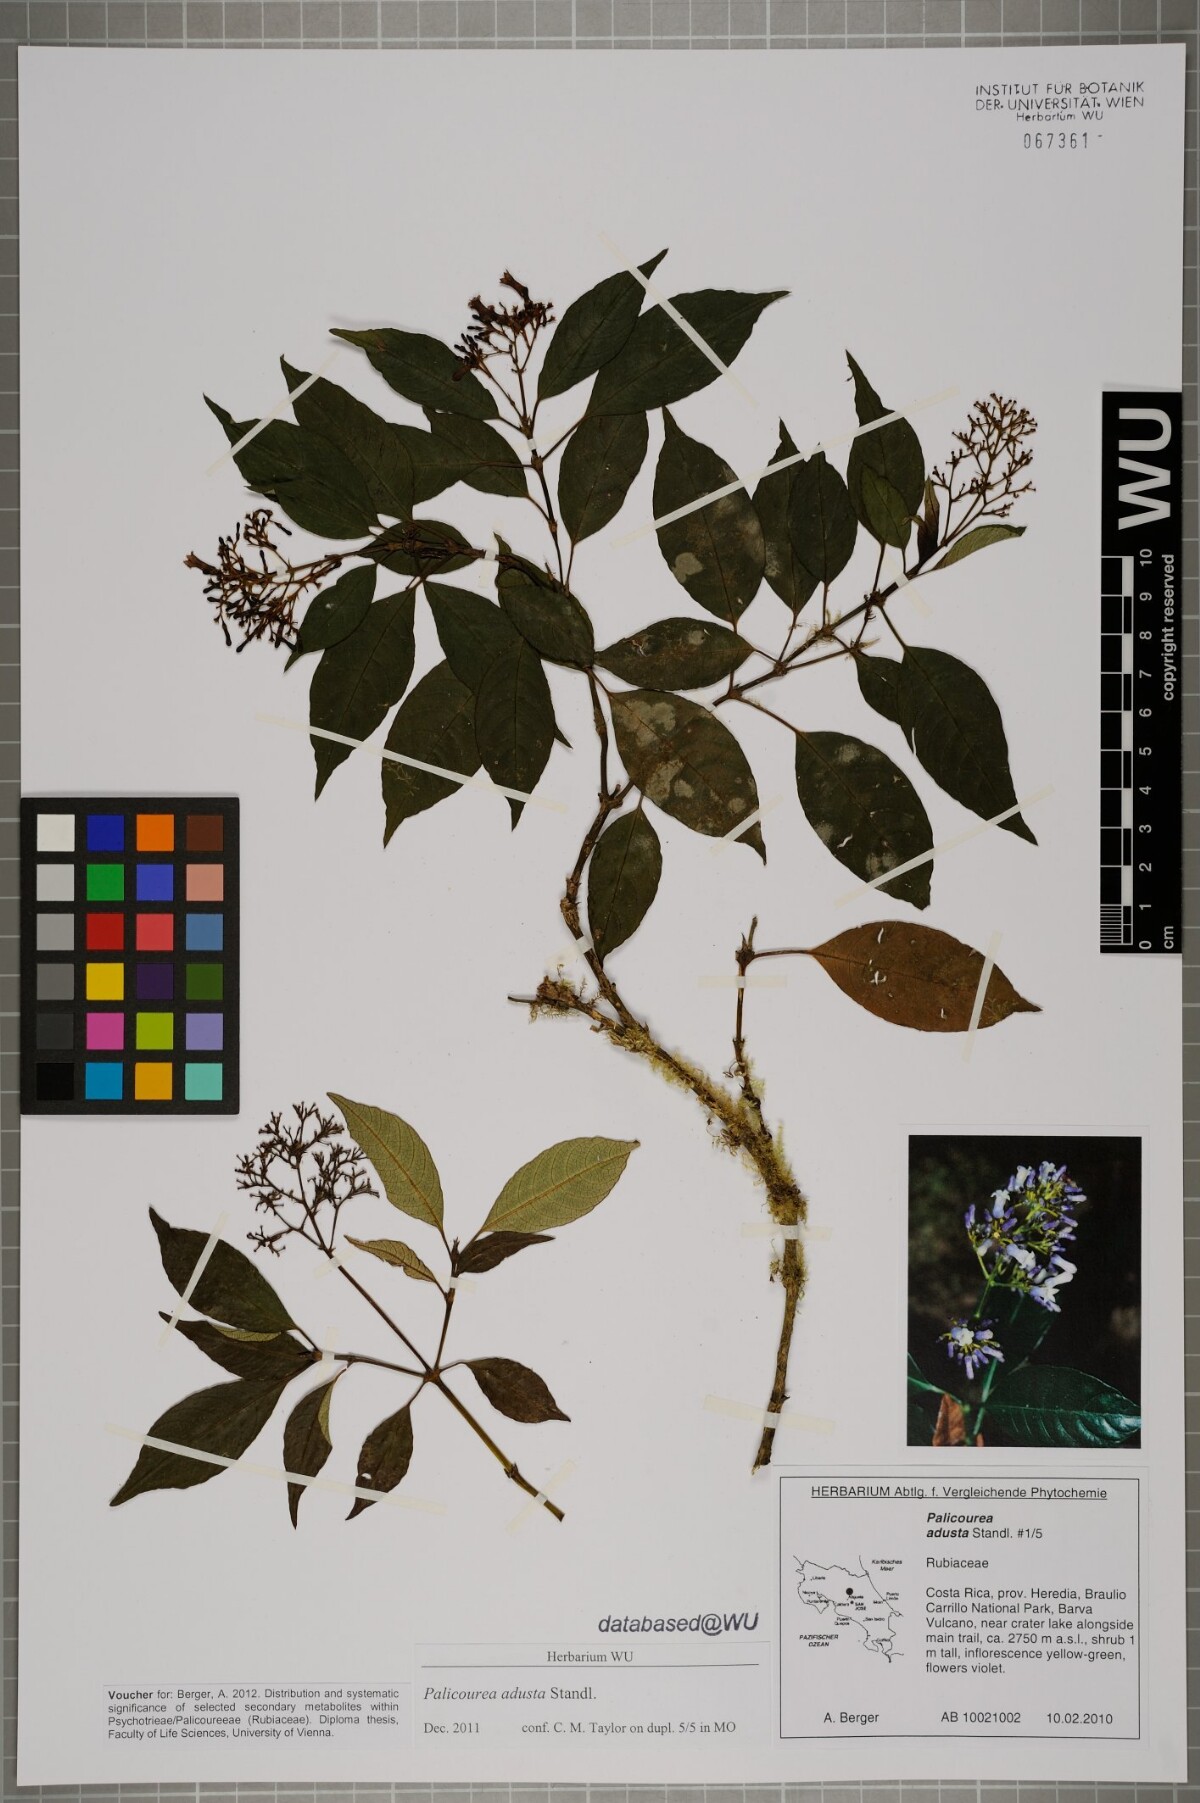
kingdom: Plantae
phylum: Tracheophyta
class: Magnoliopsida
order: Gentianales
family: Rubiaceae
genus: Palicourea
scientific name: Palicourea adusta
